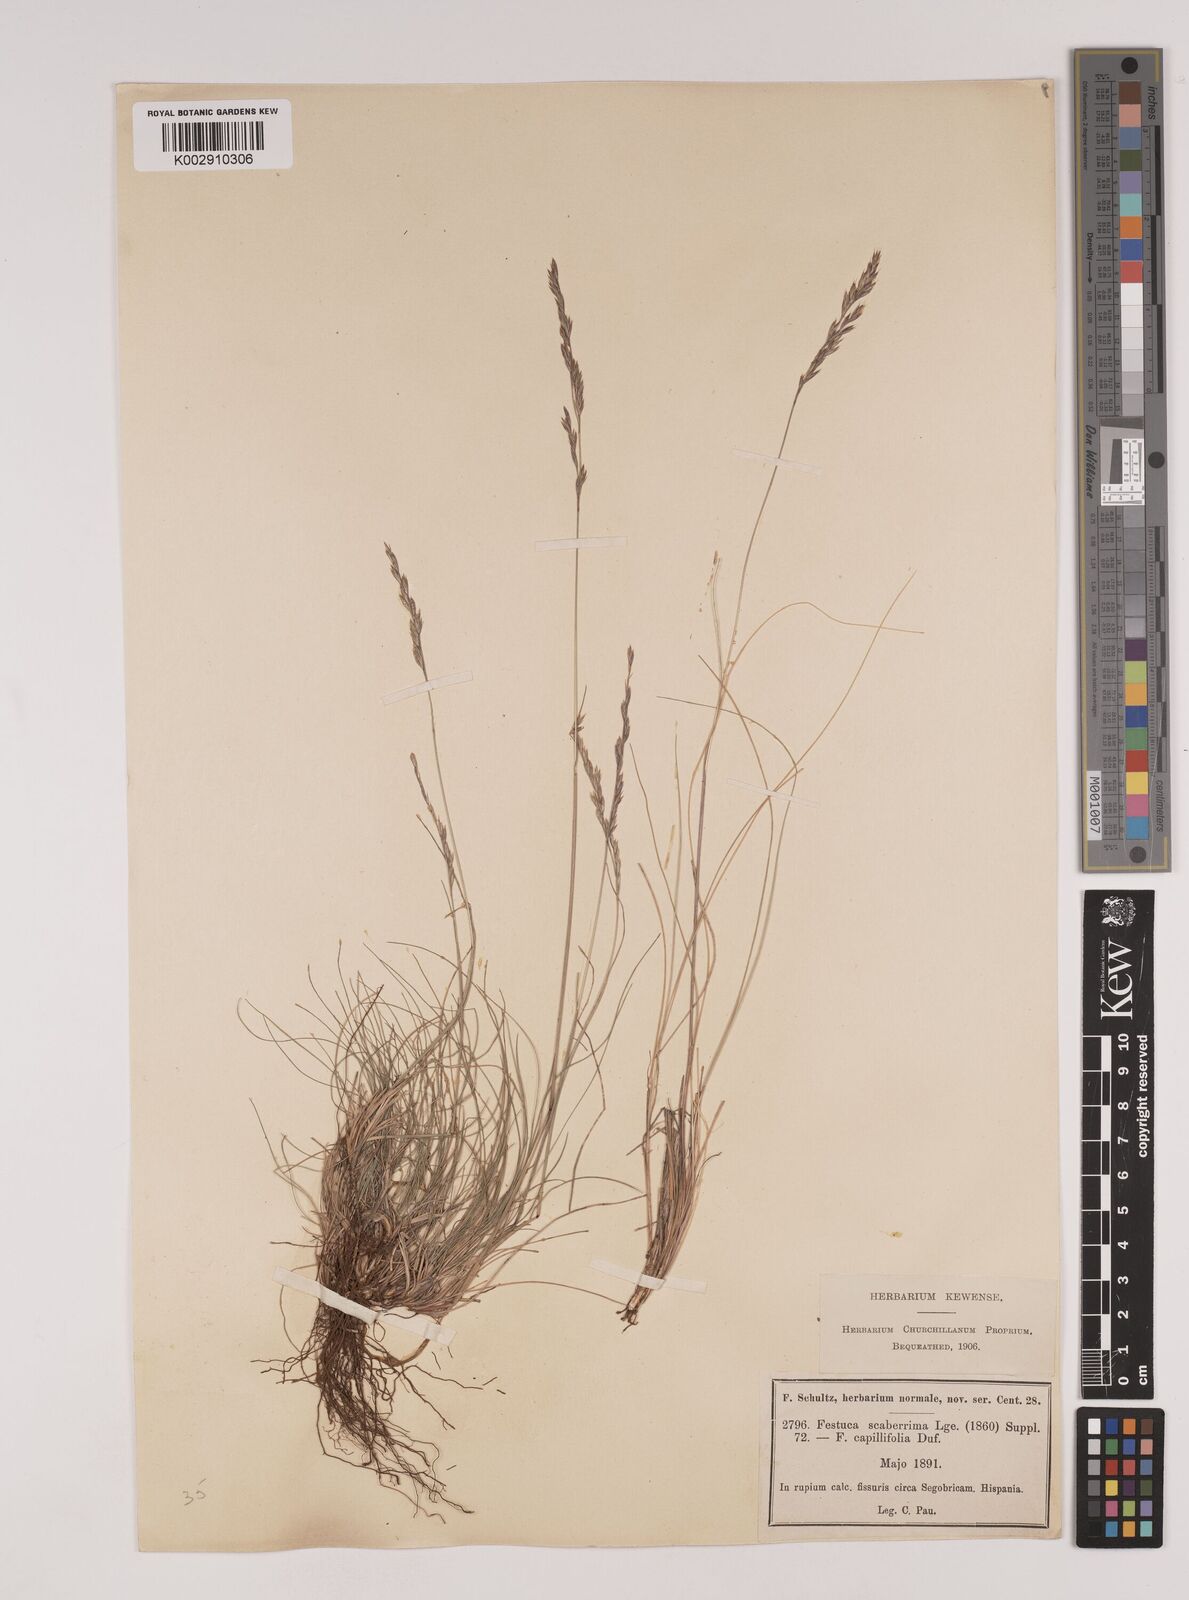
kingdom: Plantae
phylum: Tracheophyta
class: Liliopsida
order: Poales
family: Poaceae
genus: Festuca
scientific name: Festuca capillifolia
